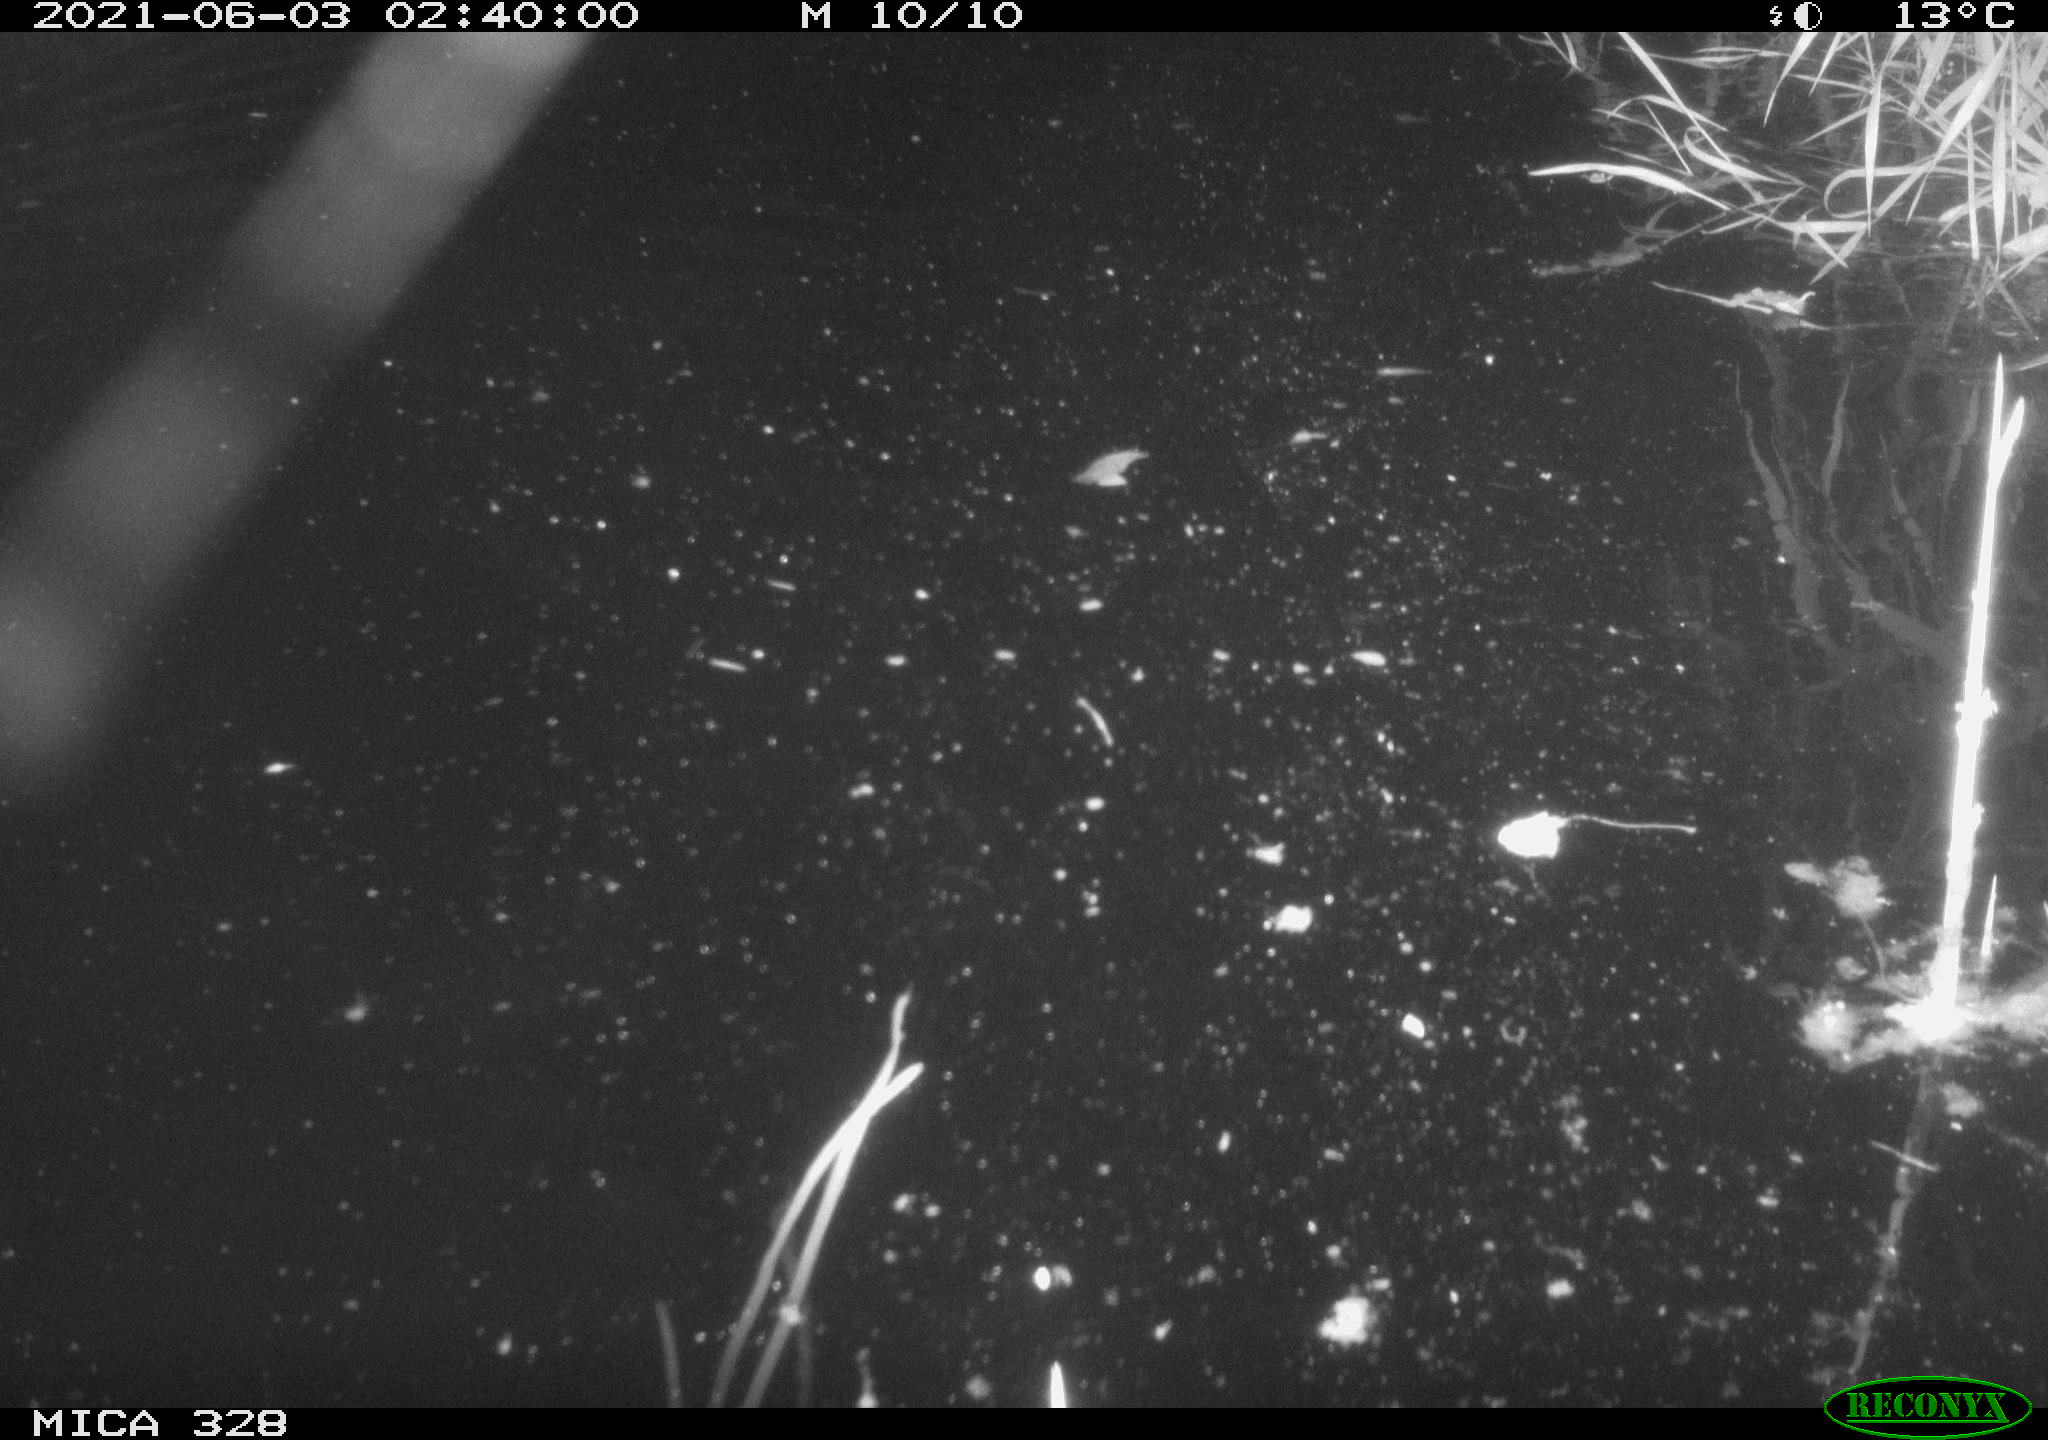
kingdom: Animalia
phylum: Chordata
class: Mammalia
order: Rodentia
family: Cricetidae
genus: Ondatra
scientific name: Ondatra zibethicus
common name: Muskrat
